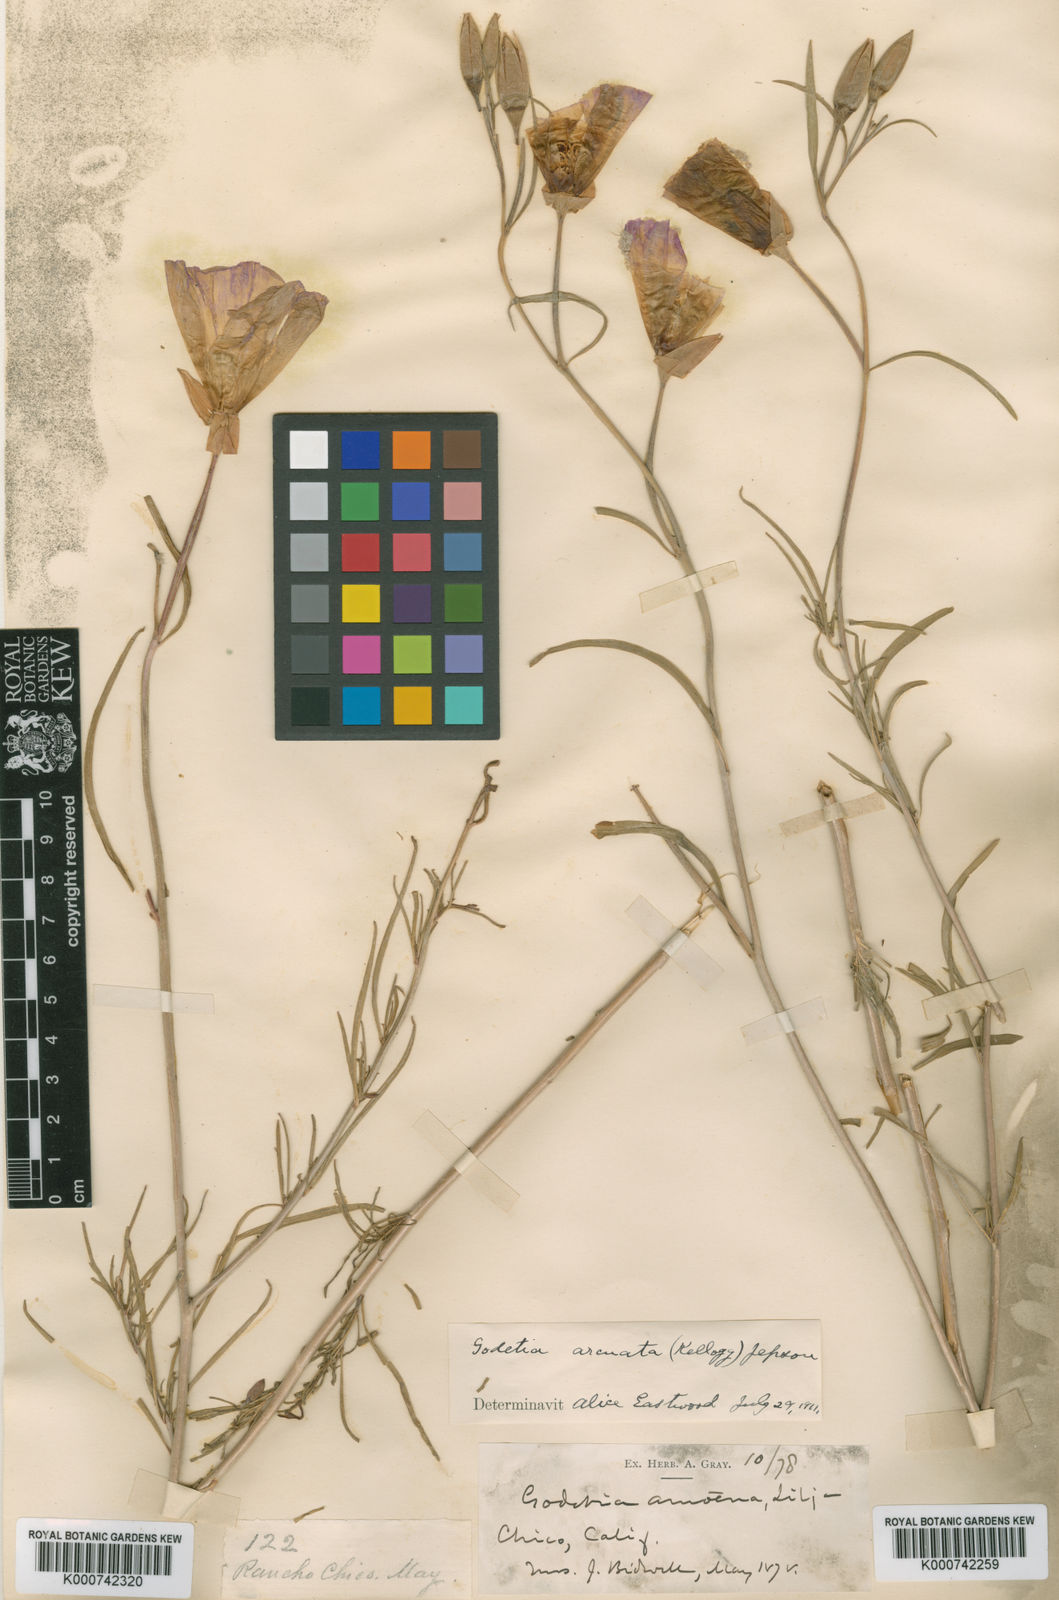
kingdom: Plantae
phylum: Tracheophyta
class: Magnoliopsida
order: Myrtales
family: Onagraceae
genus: Clarkia
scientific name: Clarkia arcuata
